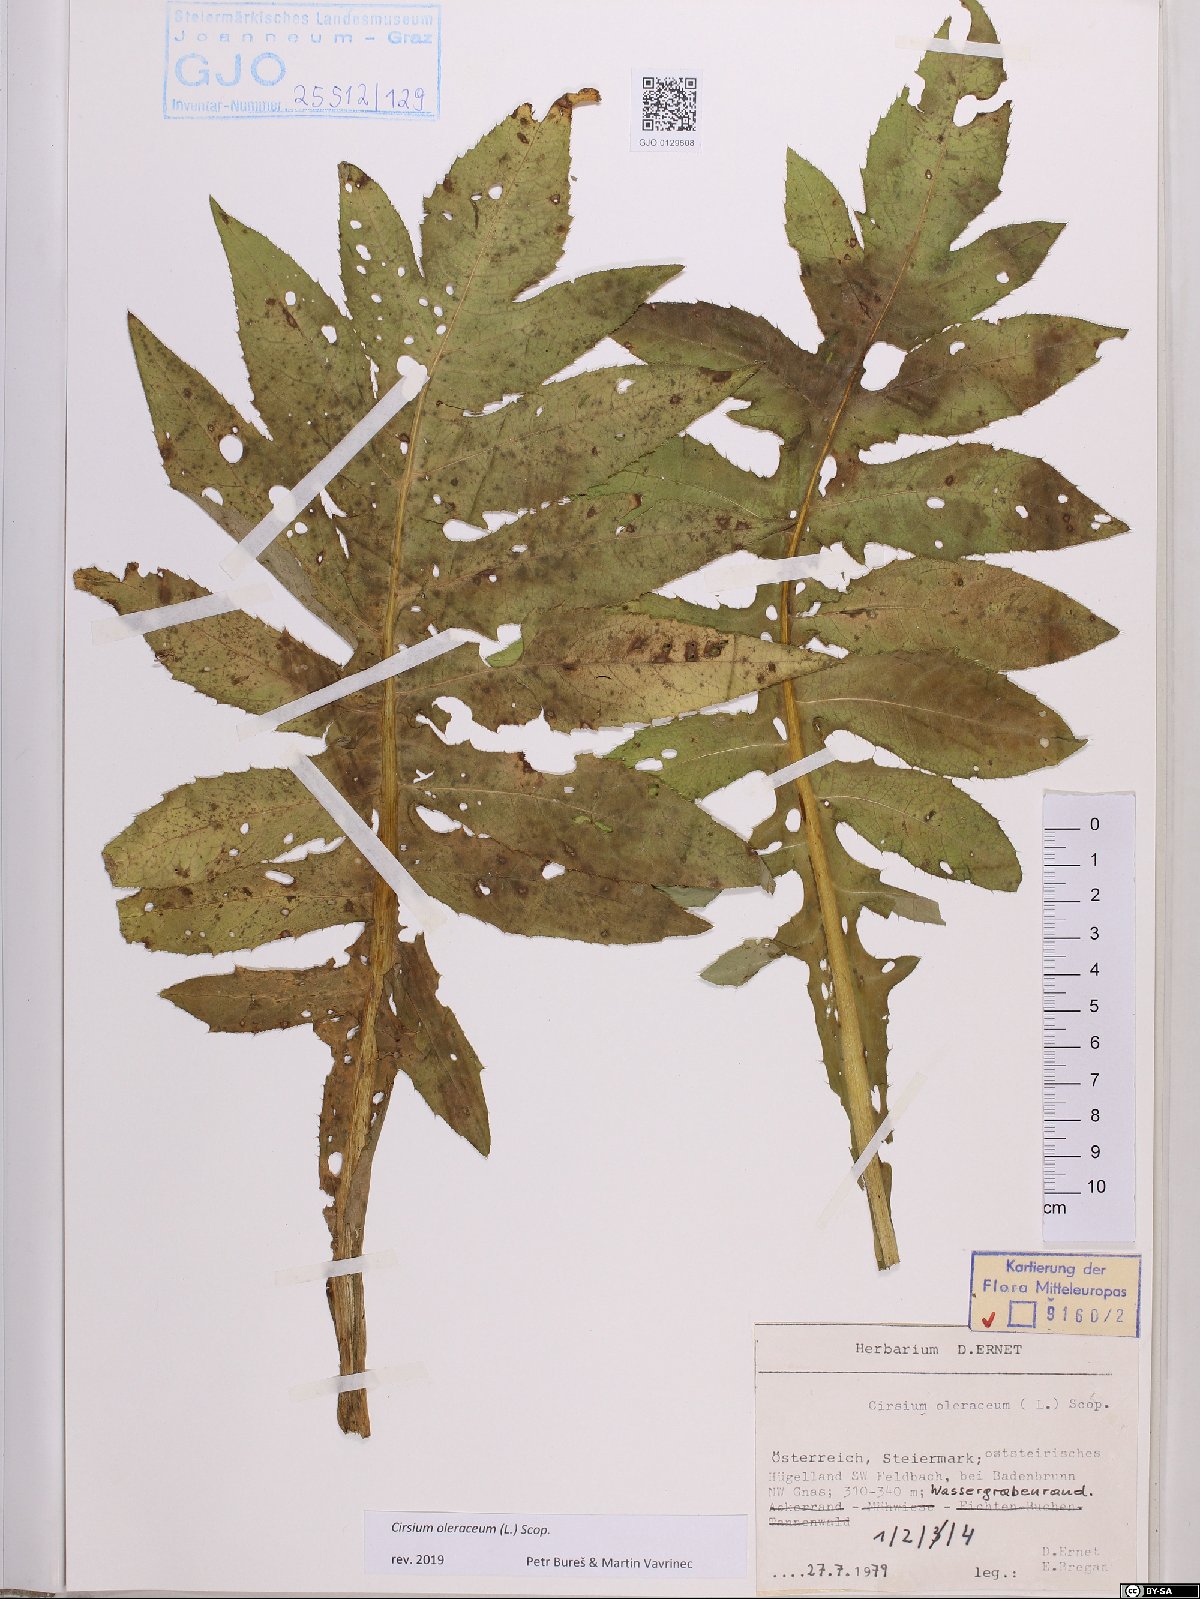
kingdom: Plantae
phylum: Tracheophyta
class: Magnoliopsida
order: Asterales
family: Asteraceae
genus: Cirsium
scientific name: Cirsium oleraceum
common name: Cabbage thistle
